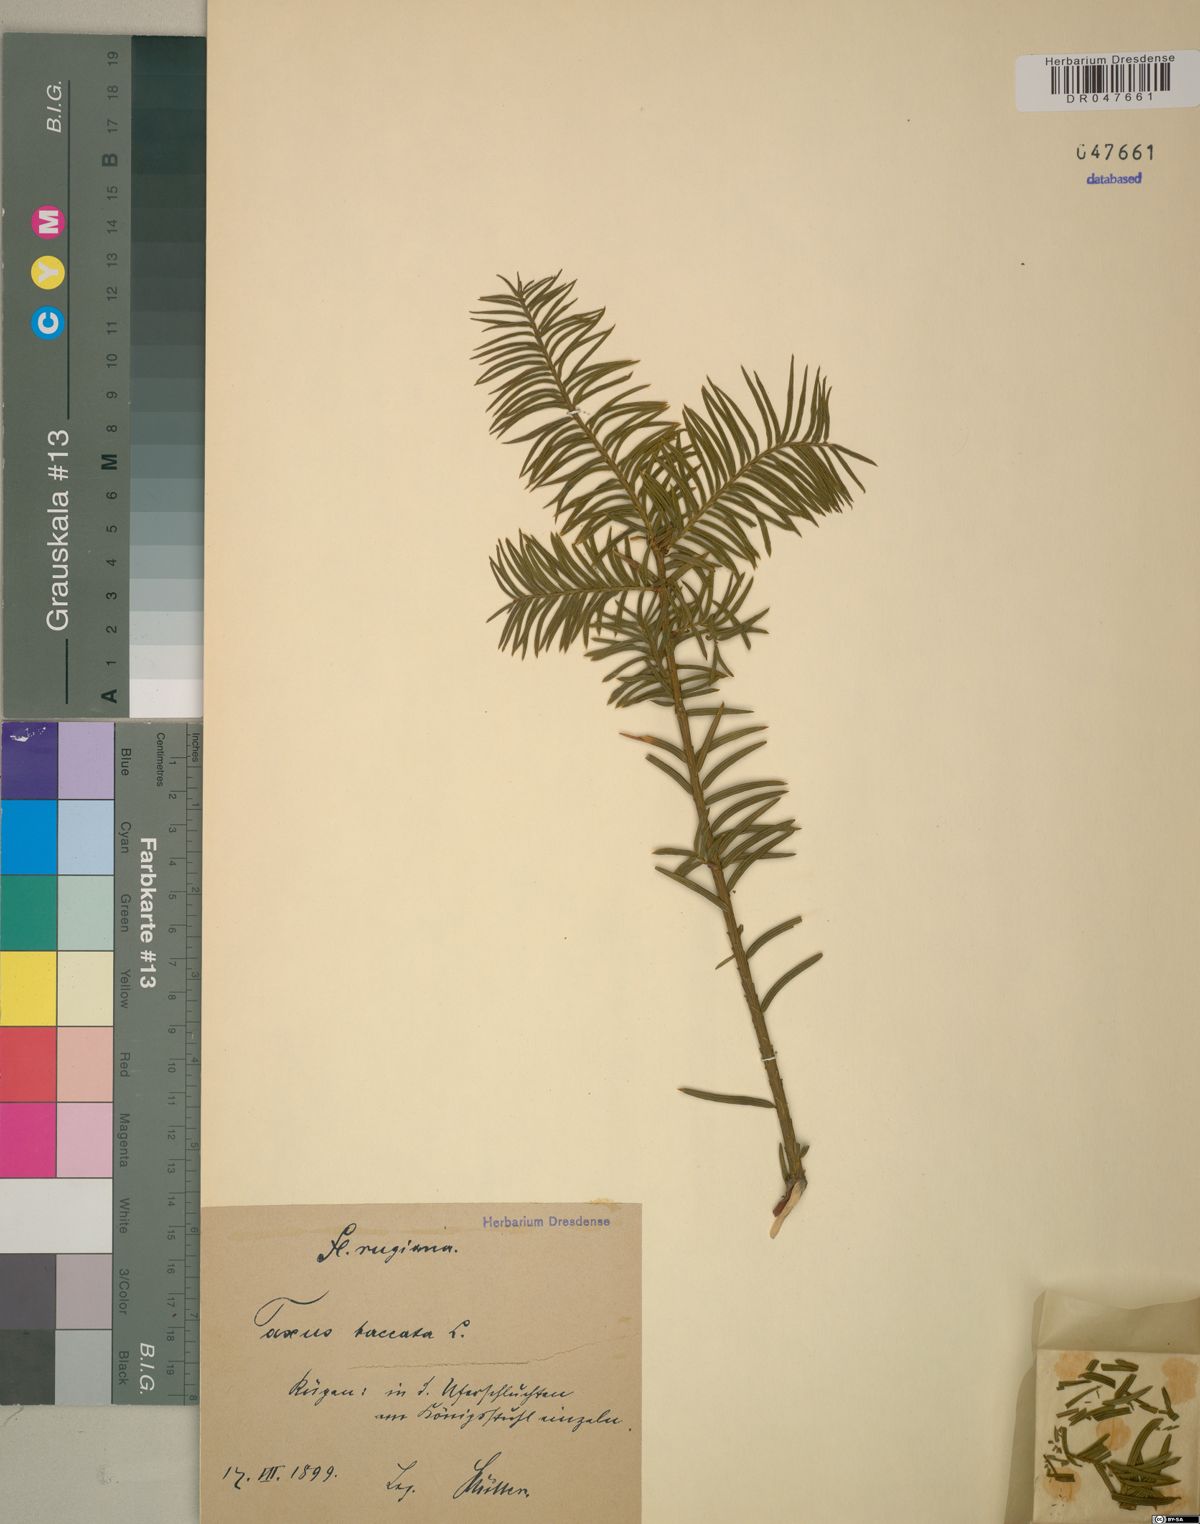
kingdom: Plantae
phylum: Tracheophyta
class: Pinopsida
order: Pinales
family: Taxaceae
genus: Taxus
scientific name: Taxus baccata
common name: Yew
